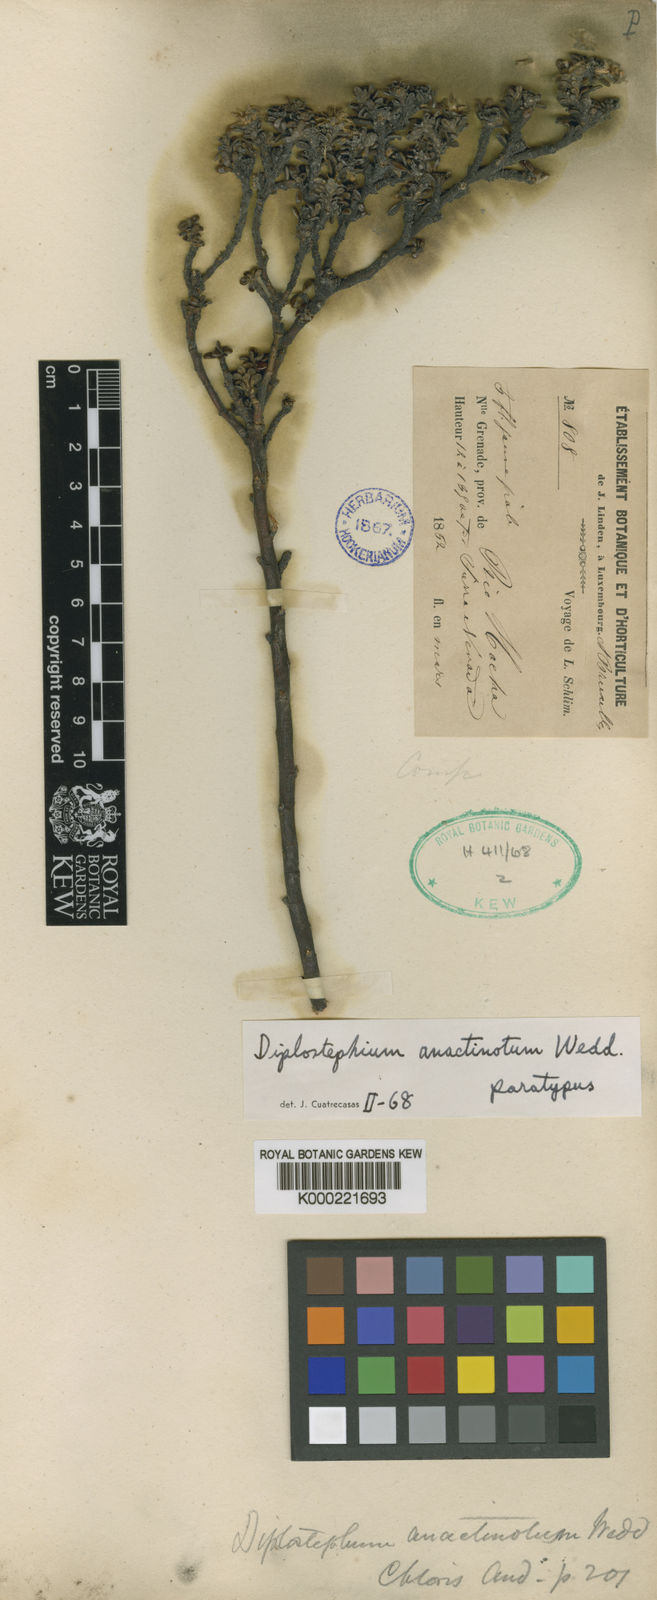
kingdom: Plantae
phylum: Tracheophyta
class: Magnoliopsida
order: Asterales
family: Asteraceae
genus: Linochilus
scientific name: Linochilus anactinotus
